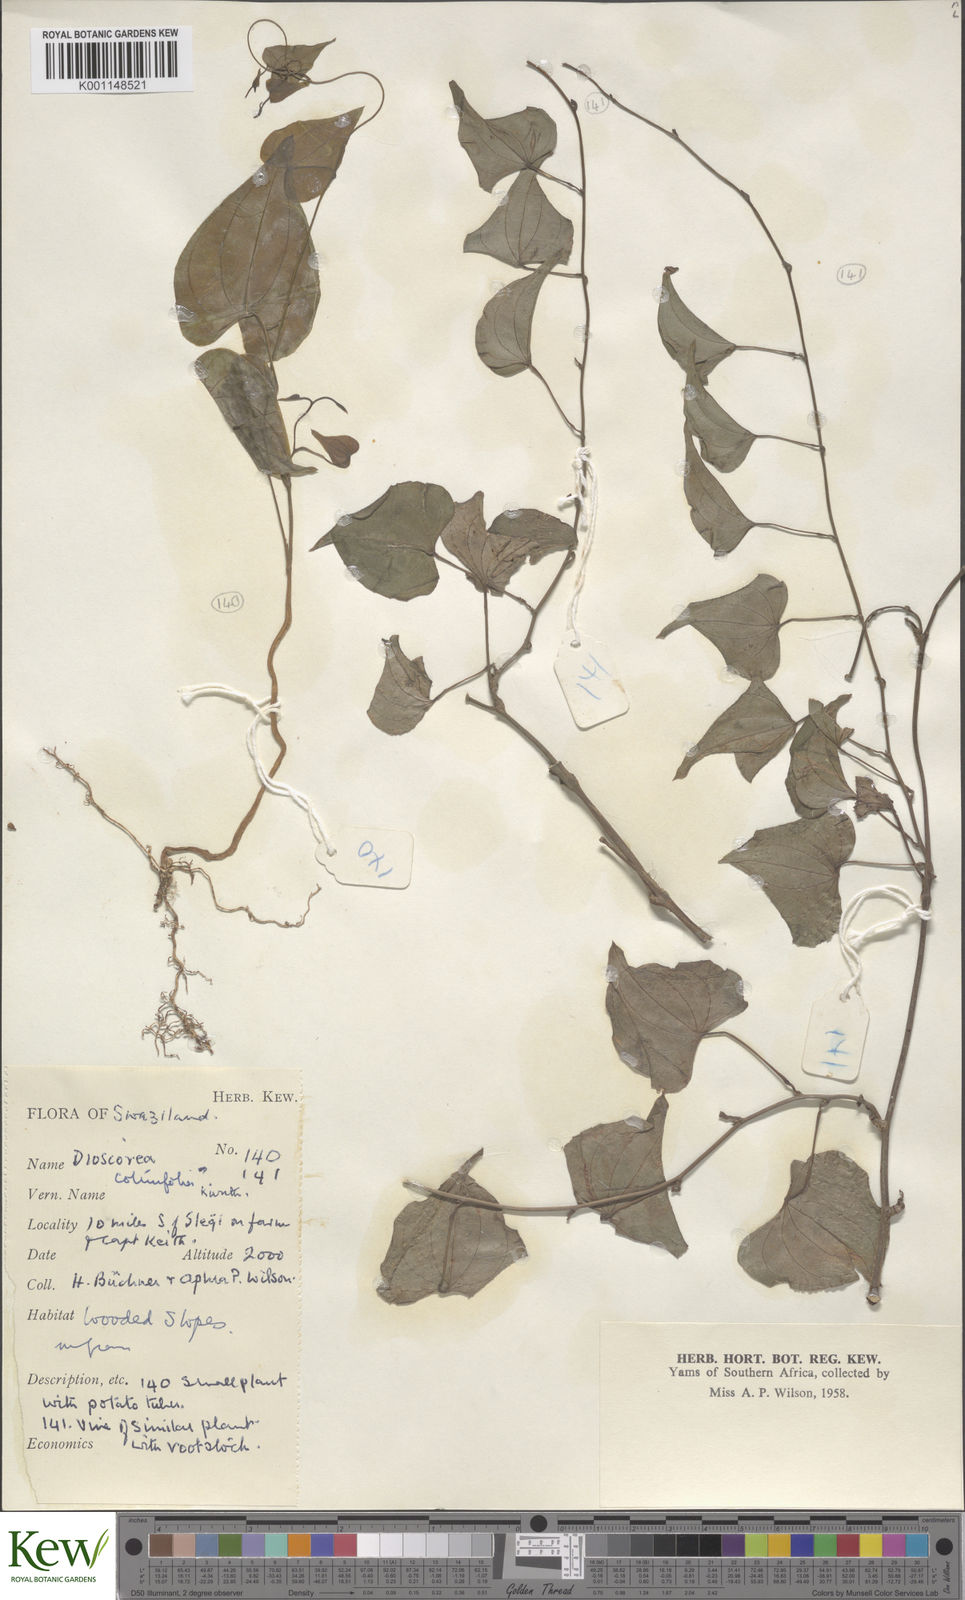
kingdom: Plantae
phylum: Tracheophyta
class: Liliopsida
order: Dioscoreales
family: Dioscoreaceae
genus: Dioscorea
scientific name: Dioscorea cotinifolia
